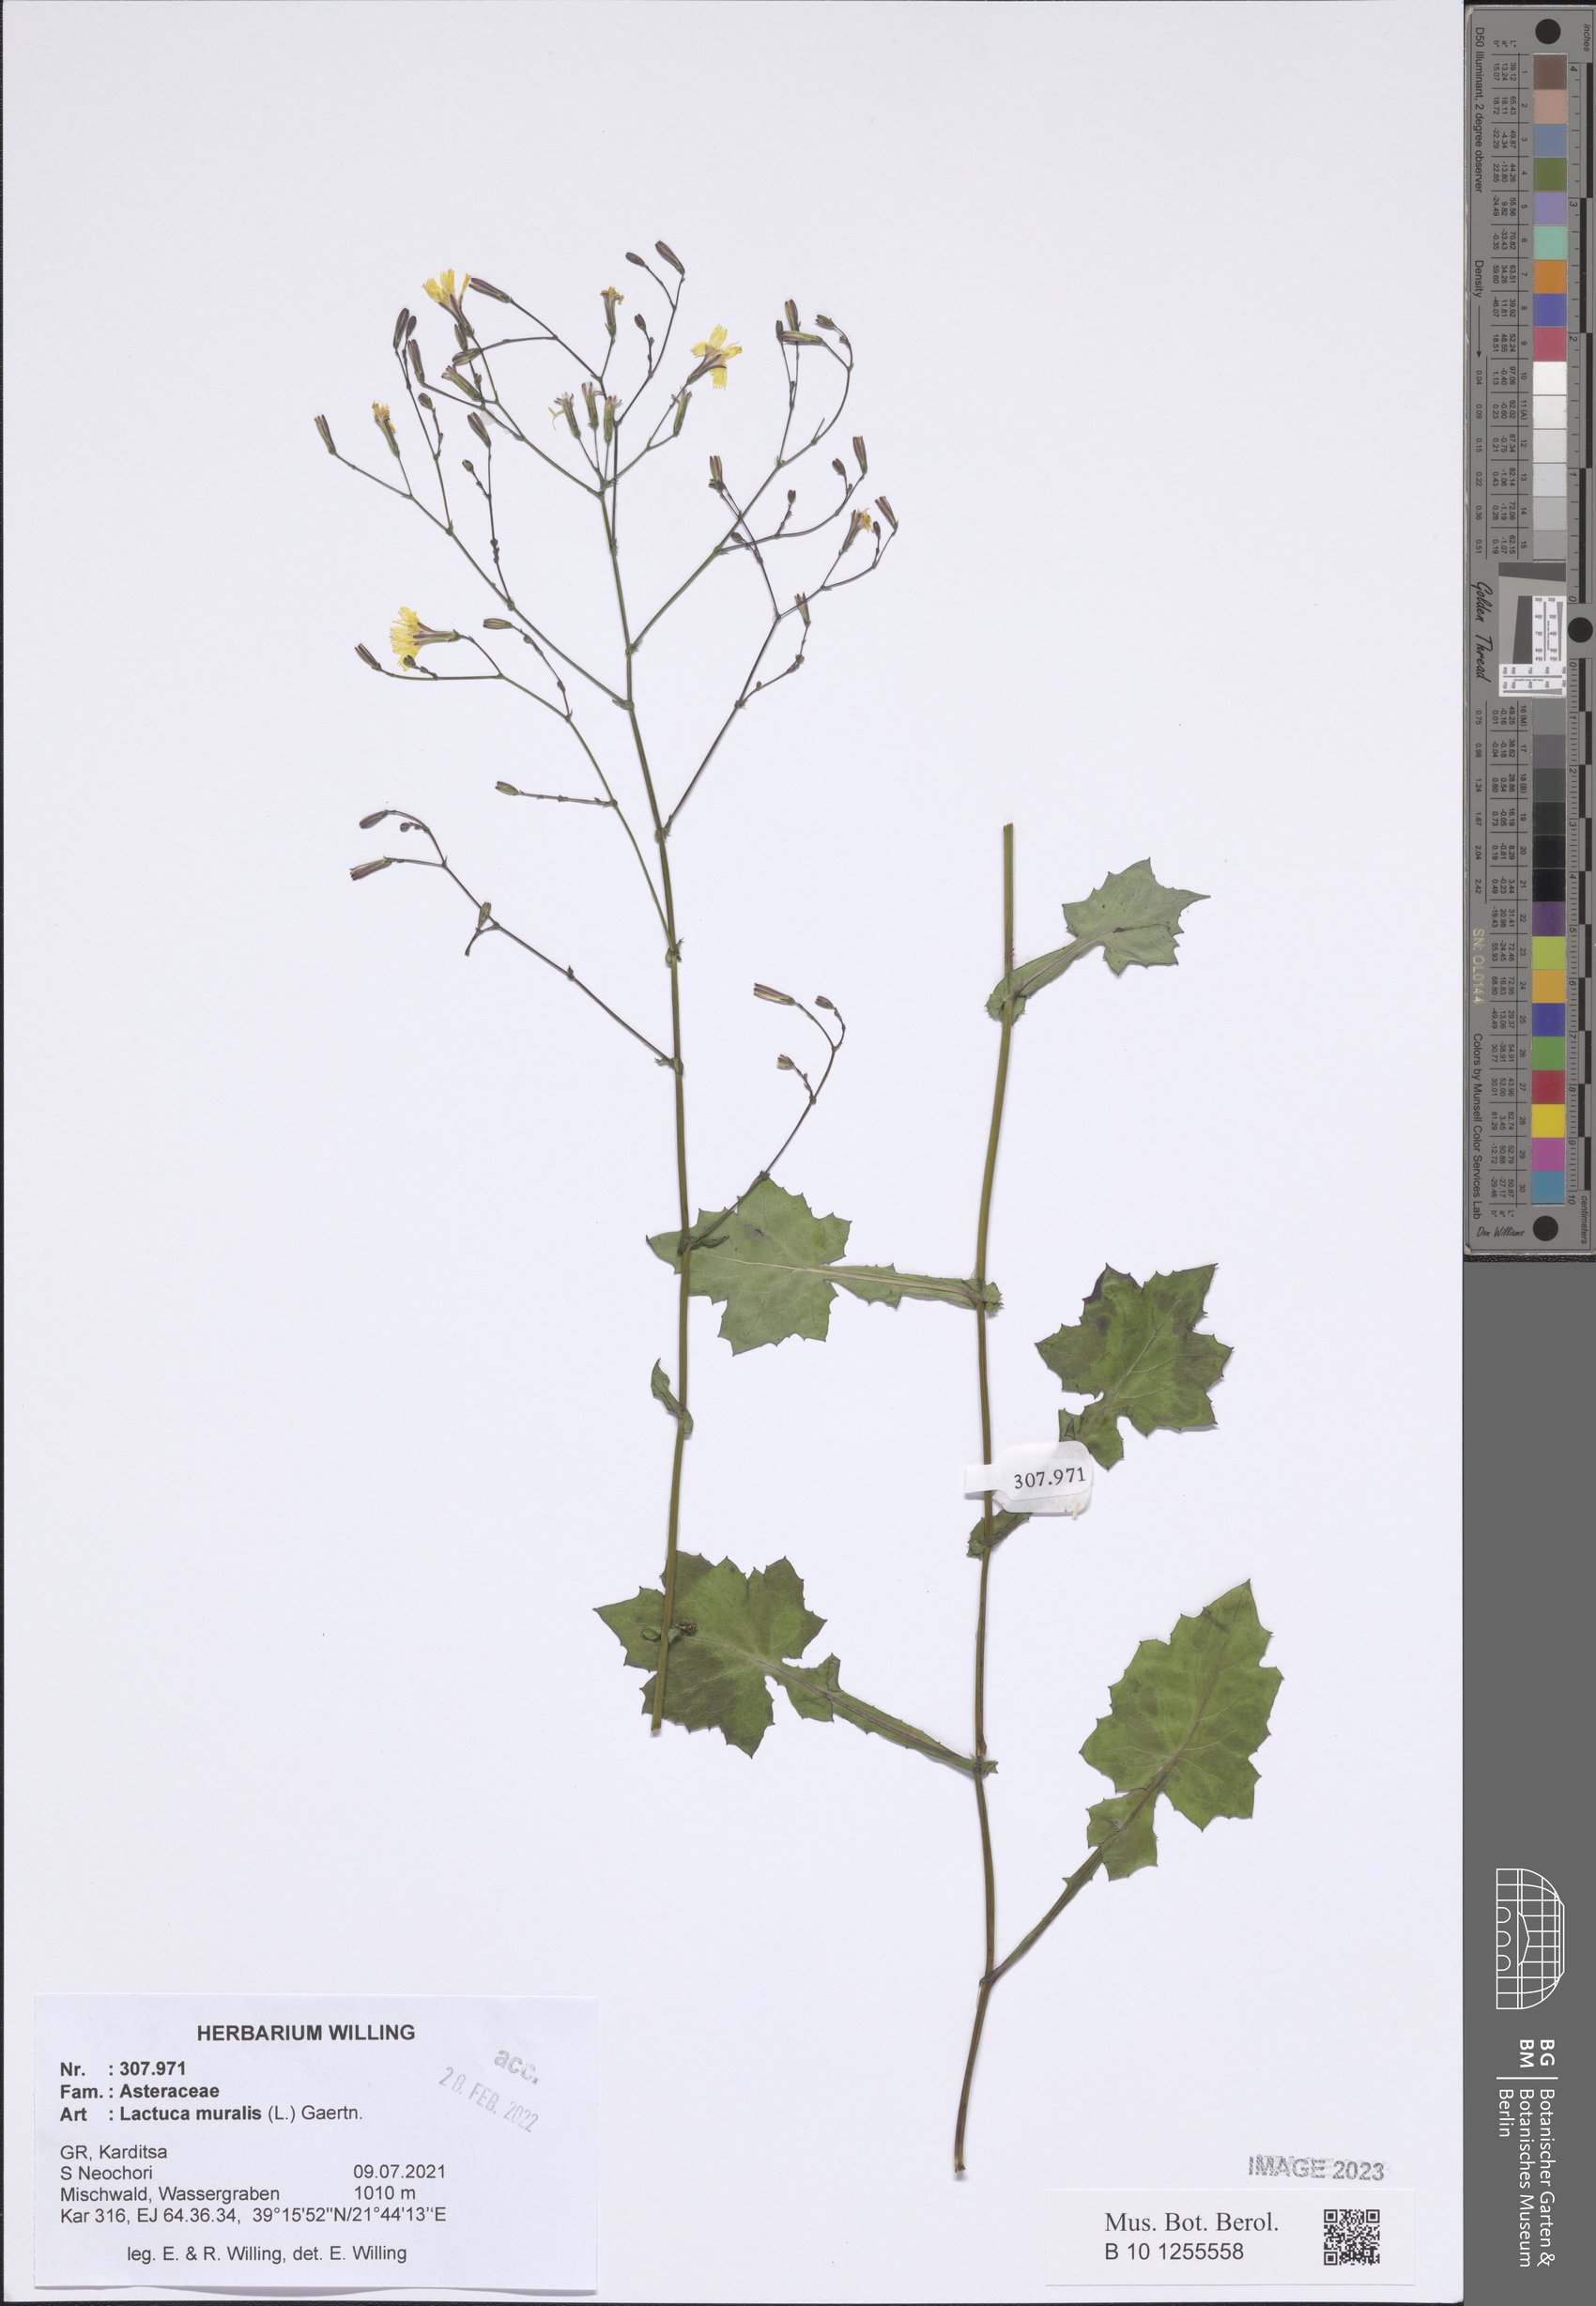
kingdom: Plantae
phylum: Tracheophyta
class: Magnoliopsida
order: Asterales
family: Asteraceae
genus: Mycelis
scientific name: Mycelis muralis
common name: Wall lettuce
